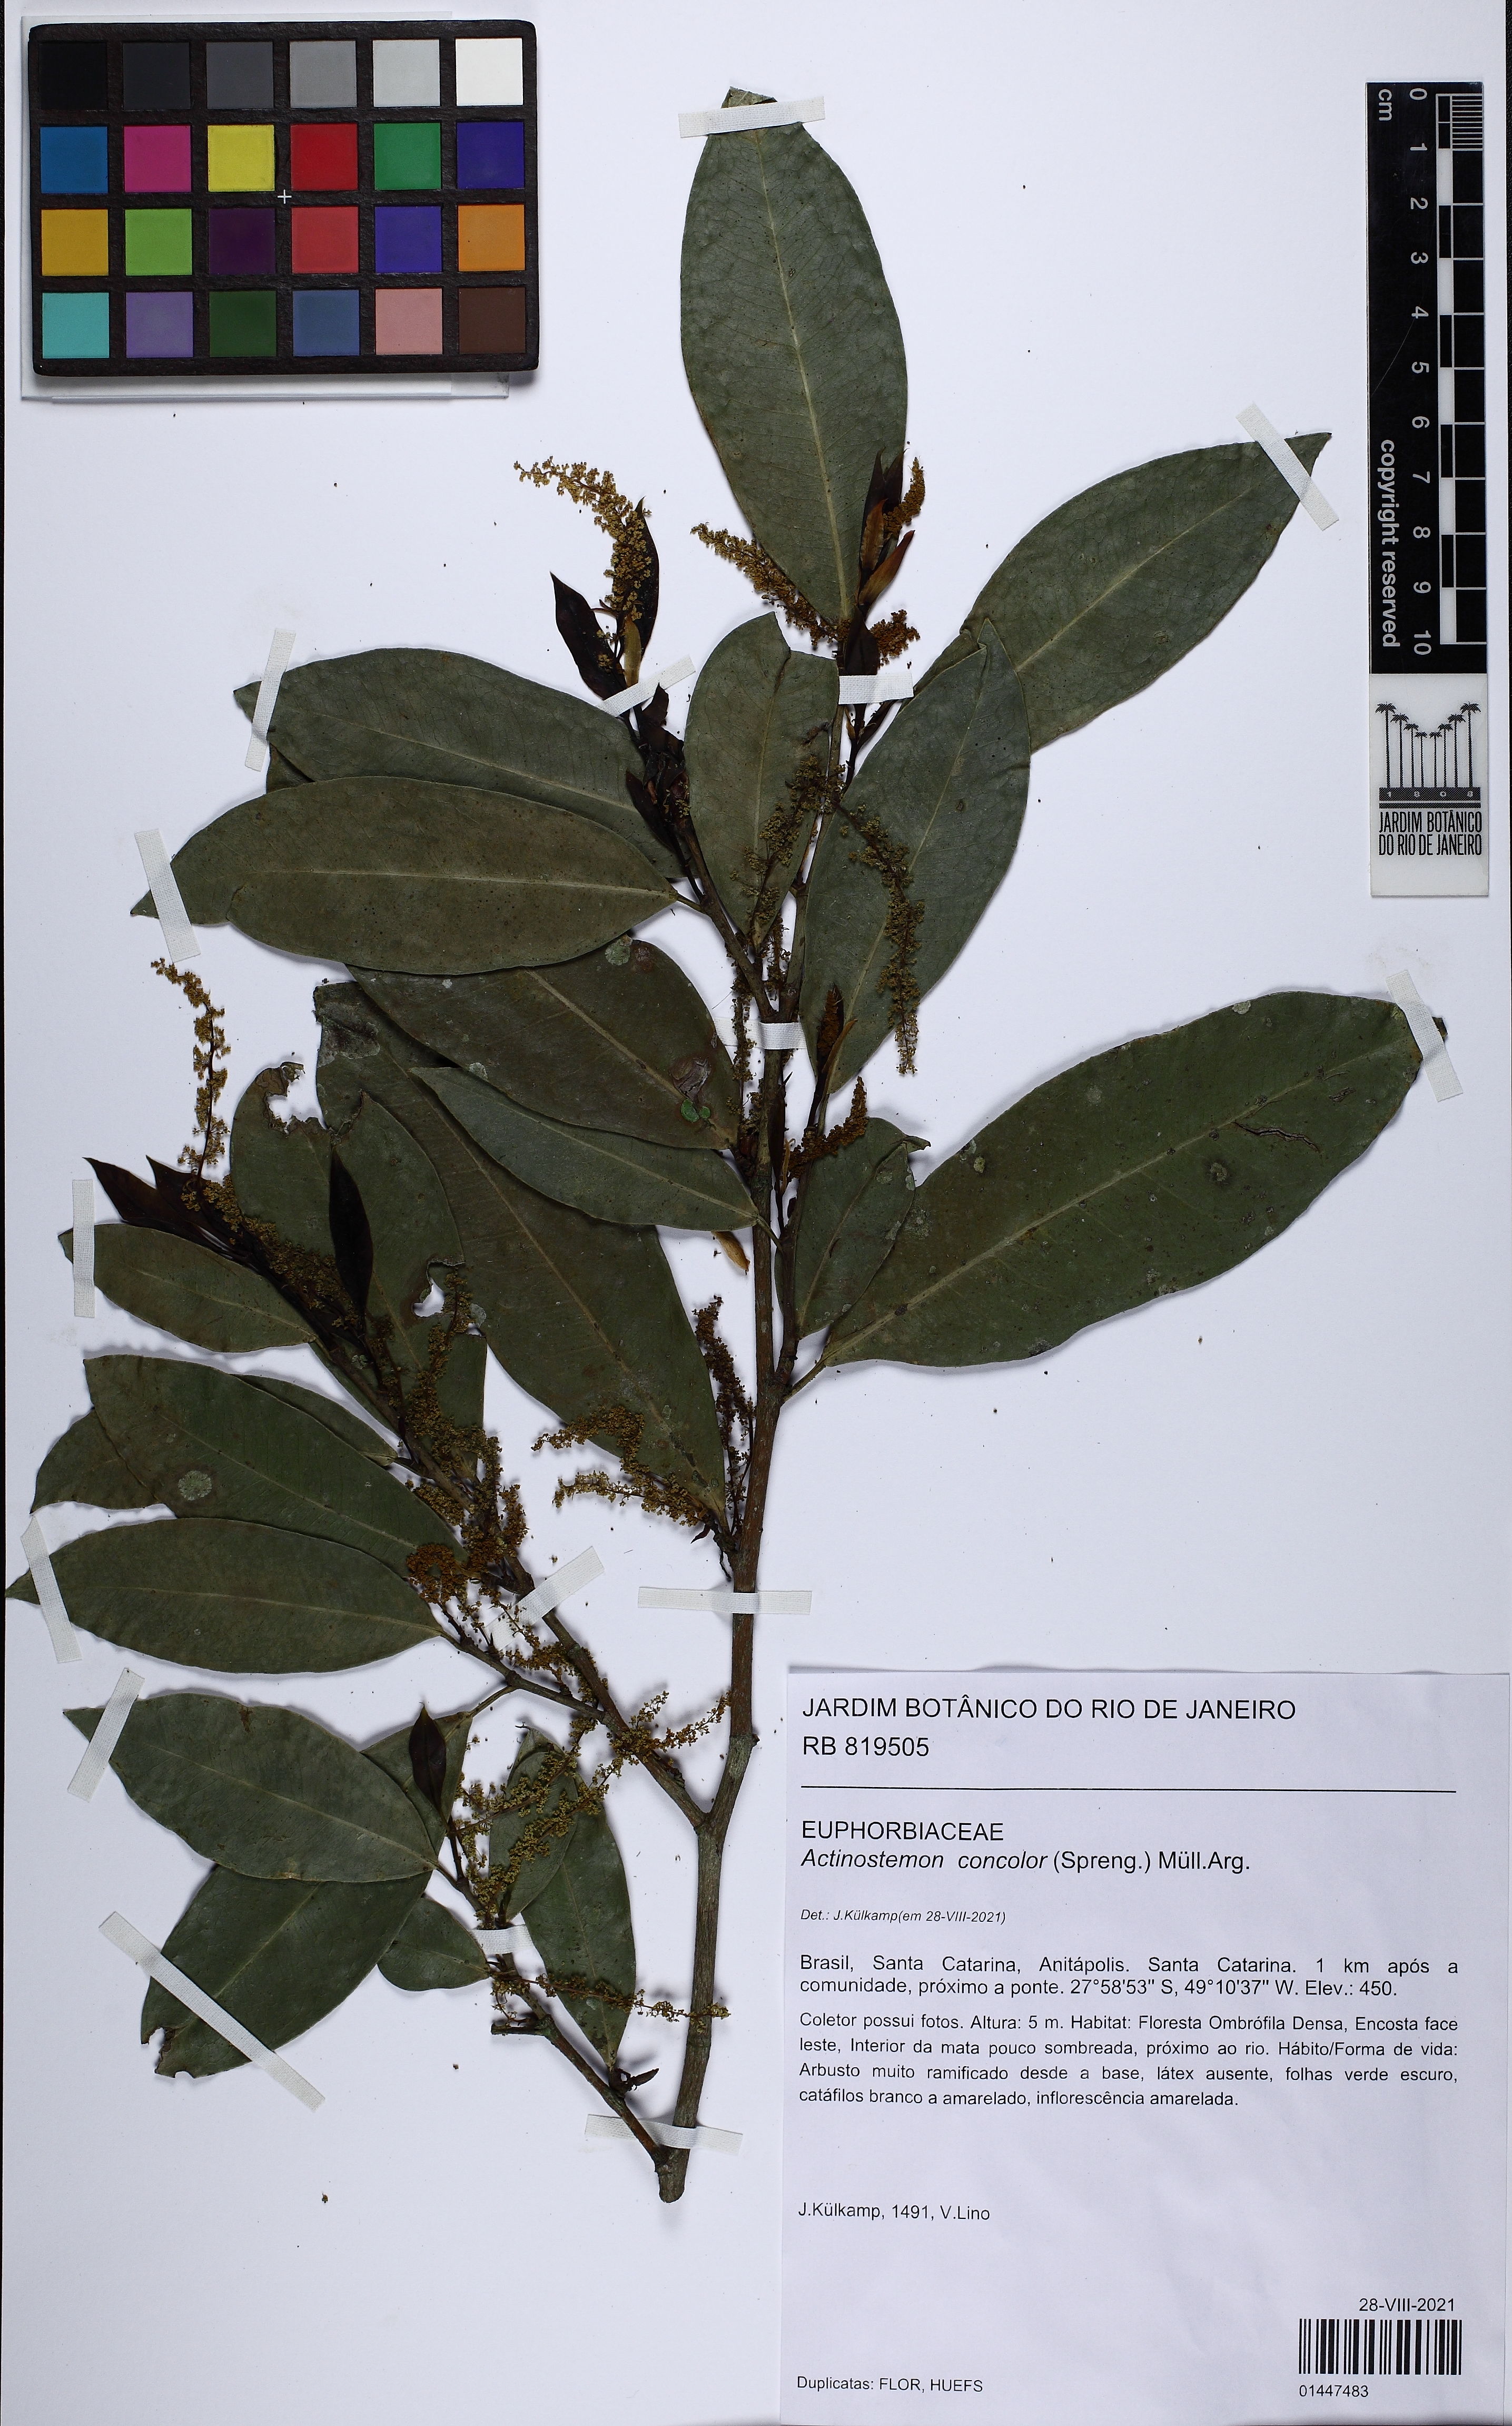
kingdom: Plantae
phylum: Tracheophyta
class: Magnoliopsida
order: Malpighiales
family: Euphorbiaceae
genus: Actinostemon
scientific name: Actinostemon concolor
